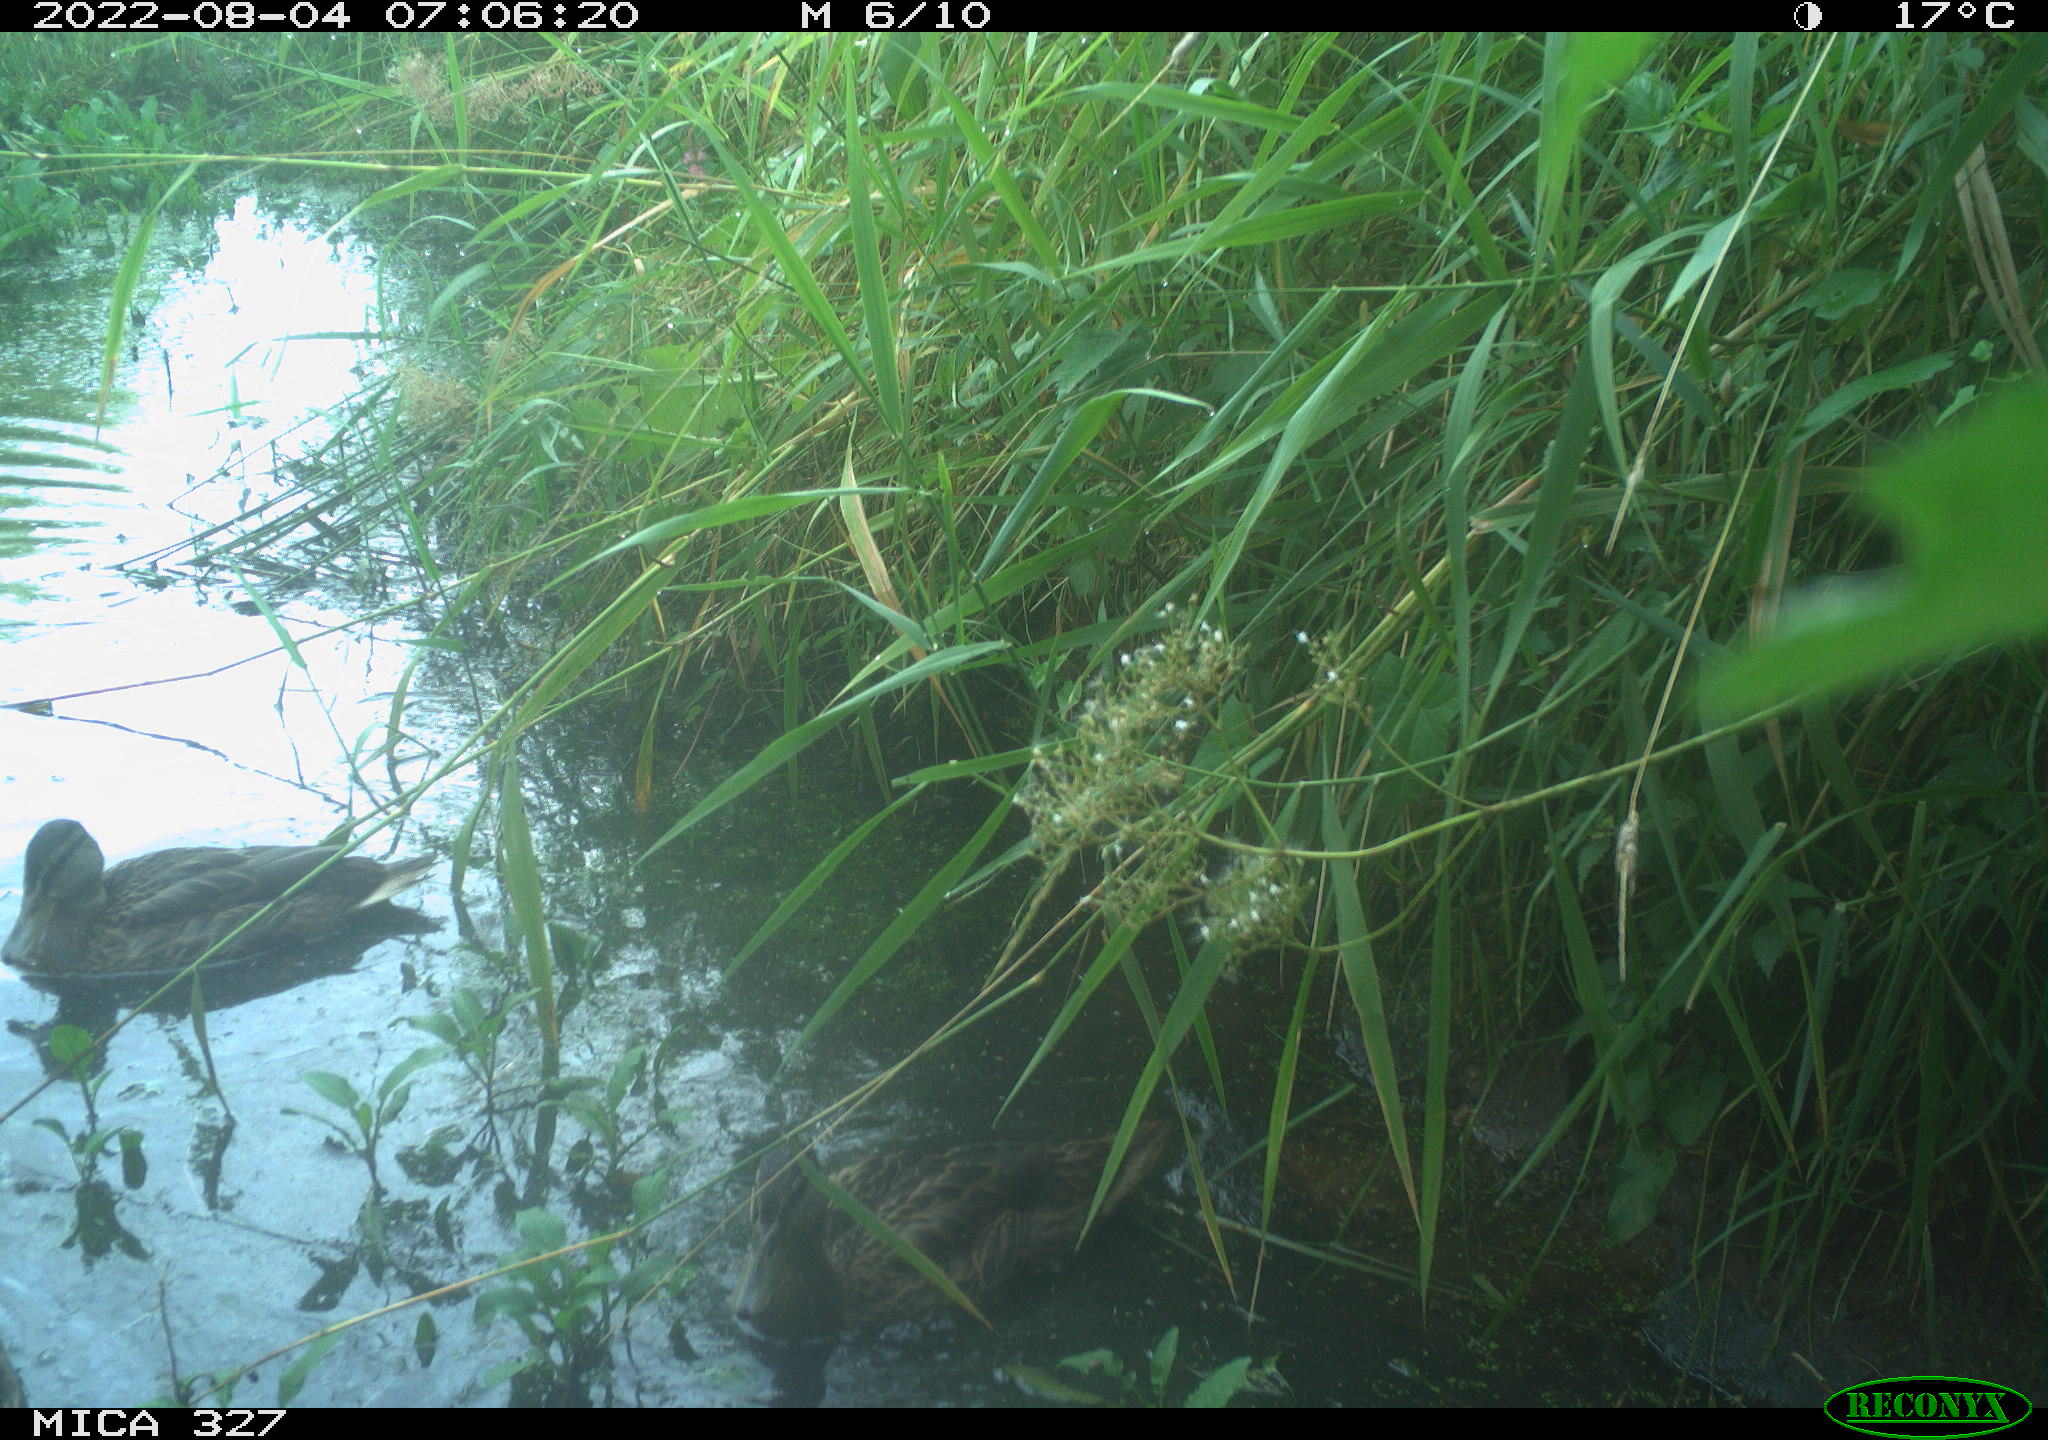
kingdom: Animalia
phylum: Chordata
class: Aves
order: Gruiformes
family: Rallidae
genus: Gallinula
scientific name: Gallinula chloropus
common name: Common moorhen
